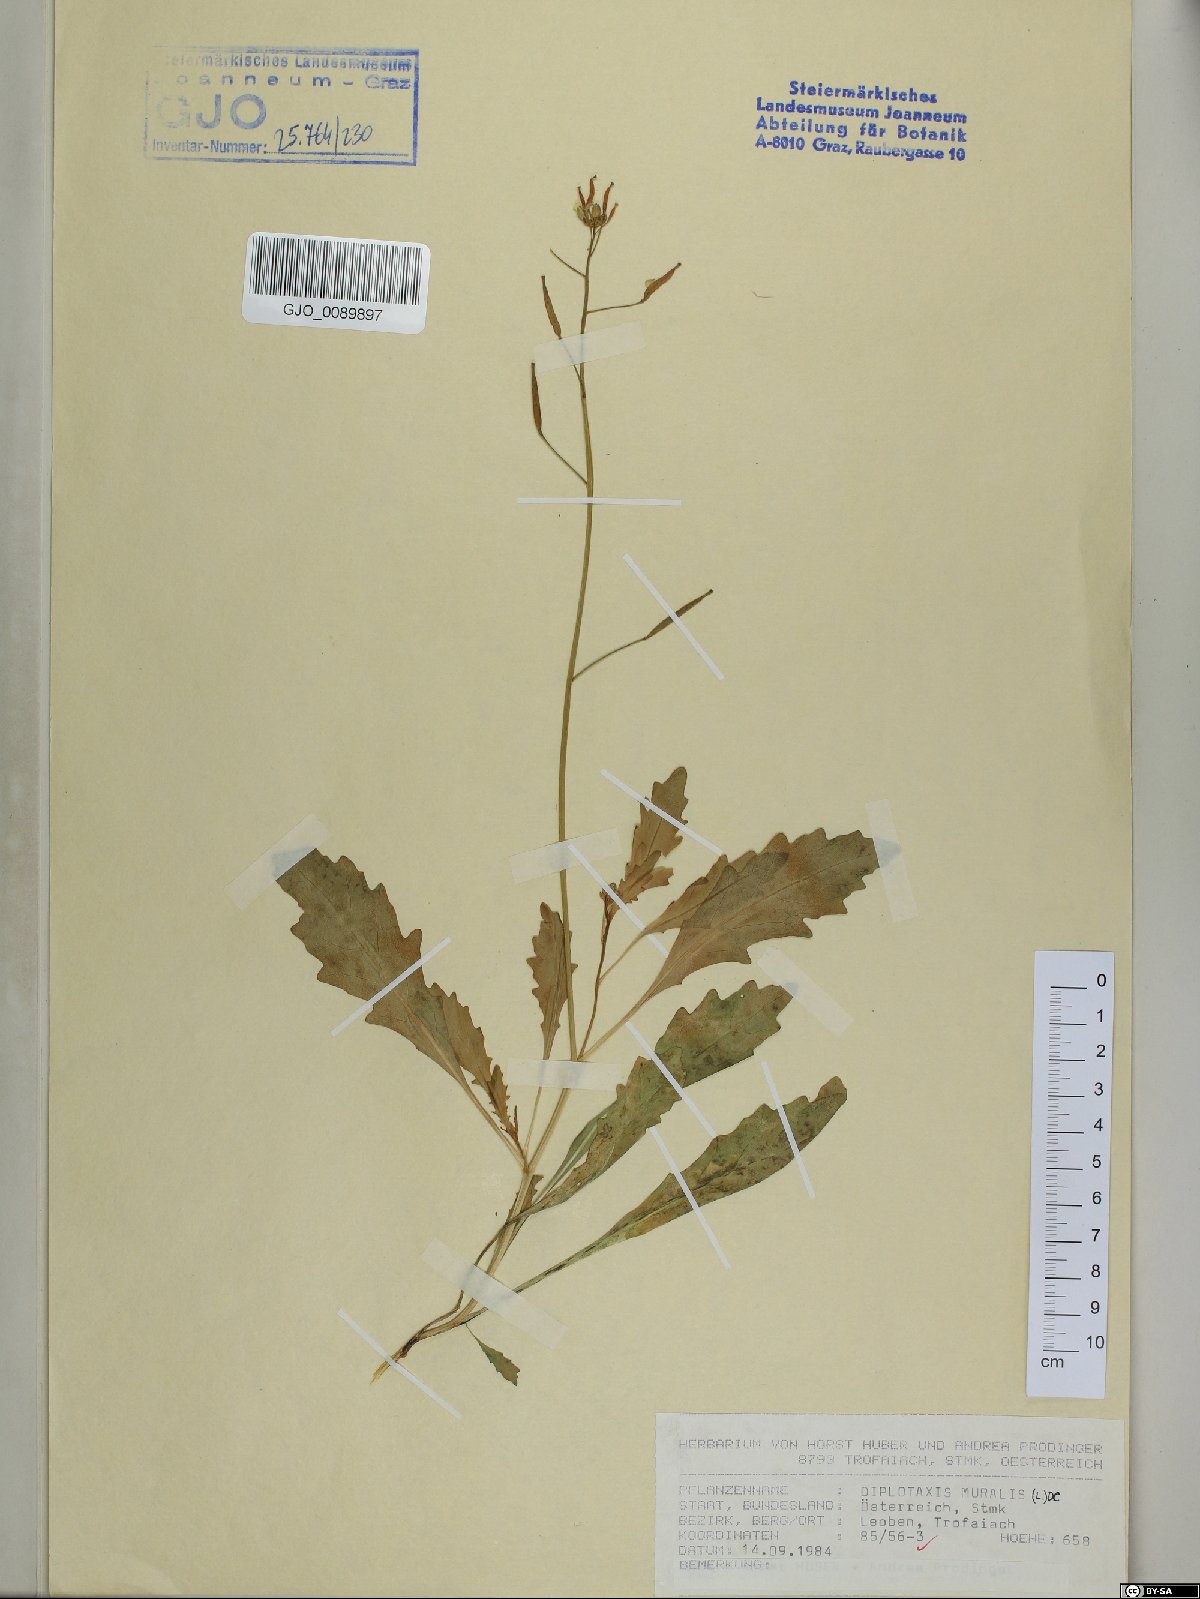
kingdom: Plantae
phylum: Tracheophyta
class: Magnoliopsida
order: Brassicales
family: Brassicaceae
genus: Diplotaxis
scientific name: Diplotaxis muralis
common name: Annual wall-rocket
